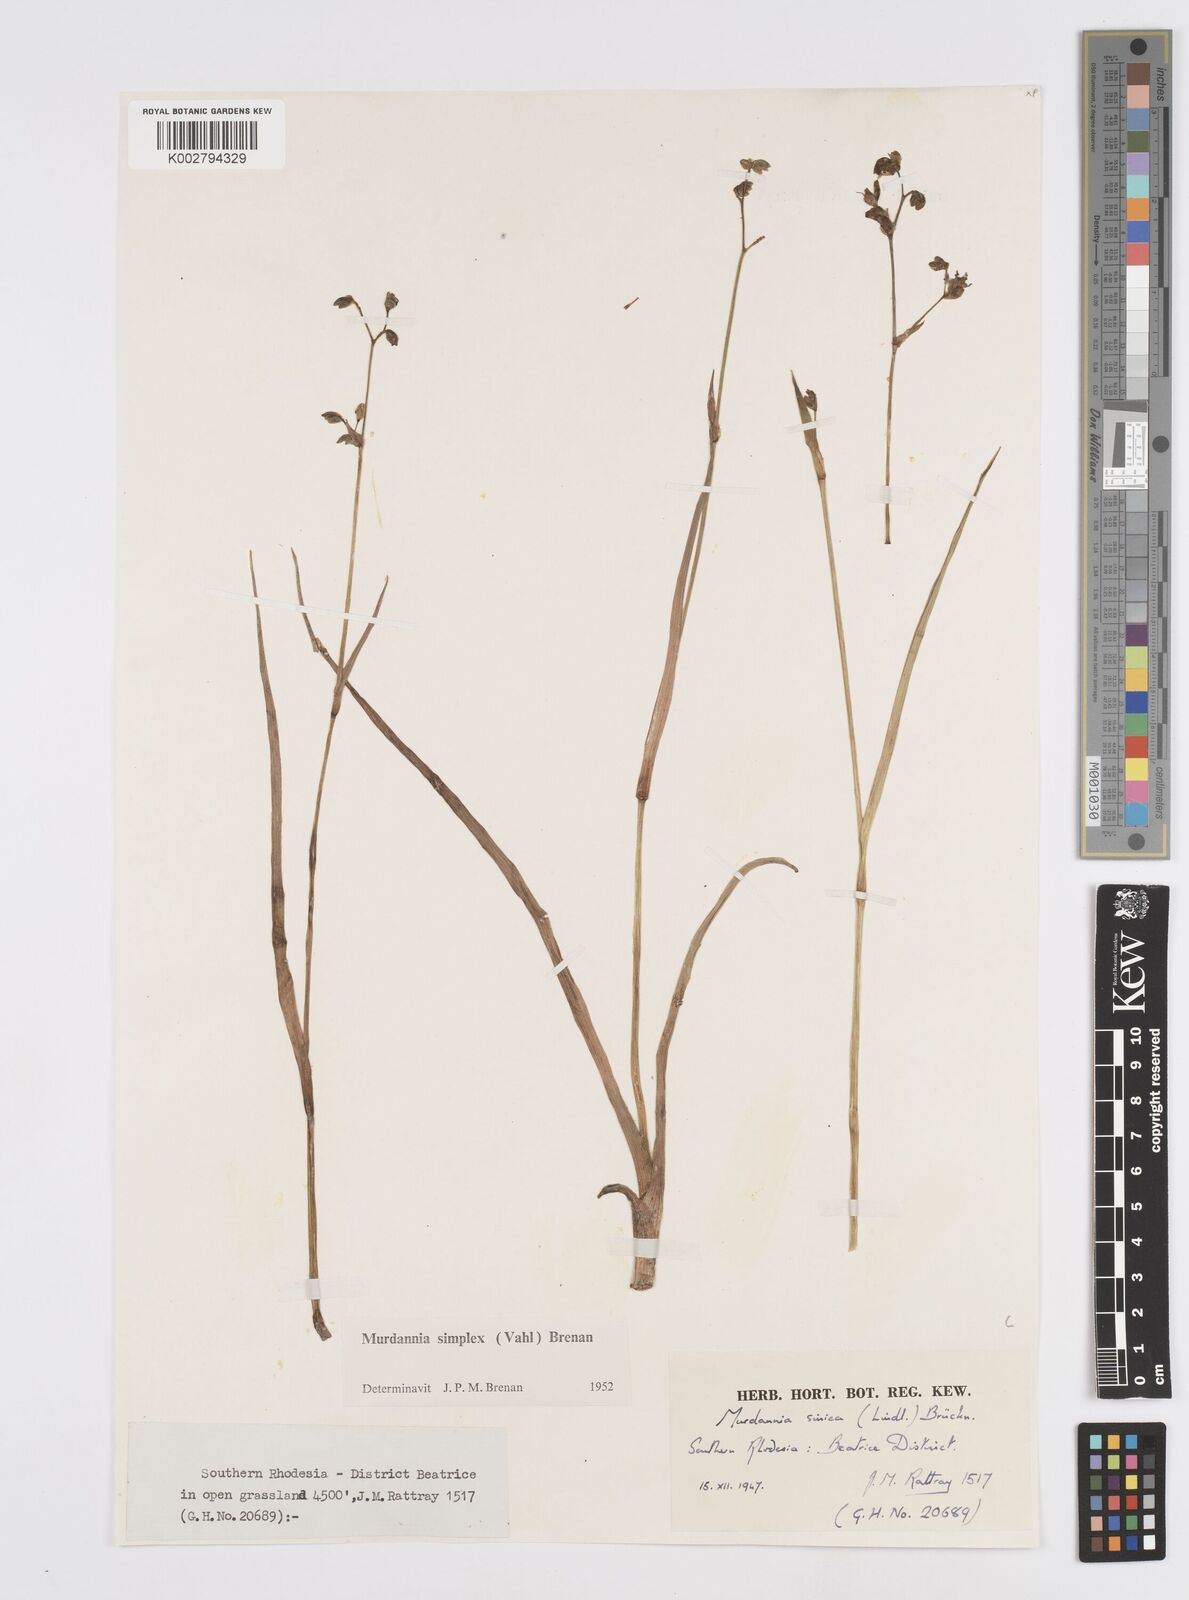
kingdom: Plantae
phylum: Tracheophyta
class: Liliopsida
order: Commelinales
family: Commelinaceae
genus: Murdannia
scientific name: Murdannia simplex
